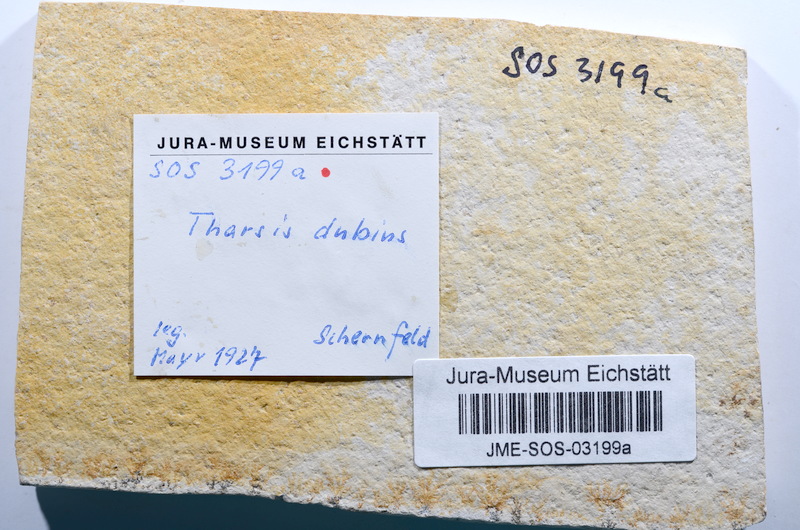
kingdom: Animalia
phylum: Chordata
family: Ascalaboidae
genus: Tharsis
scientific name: Tharsis dubius
